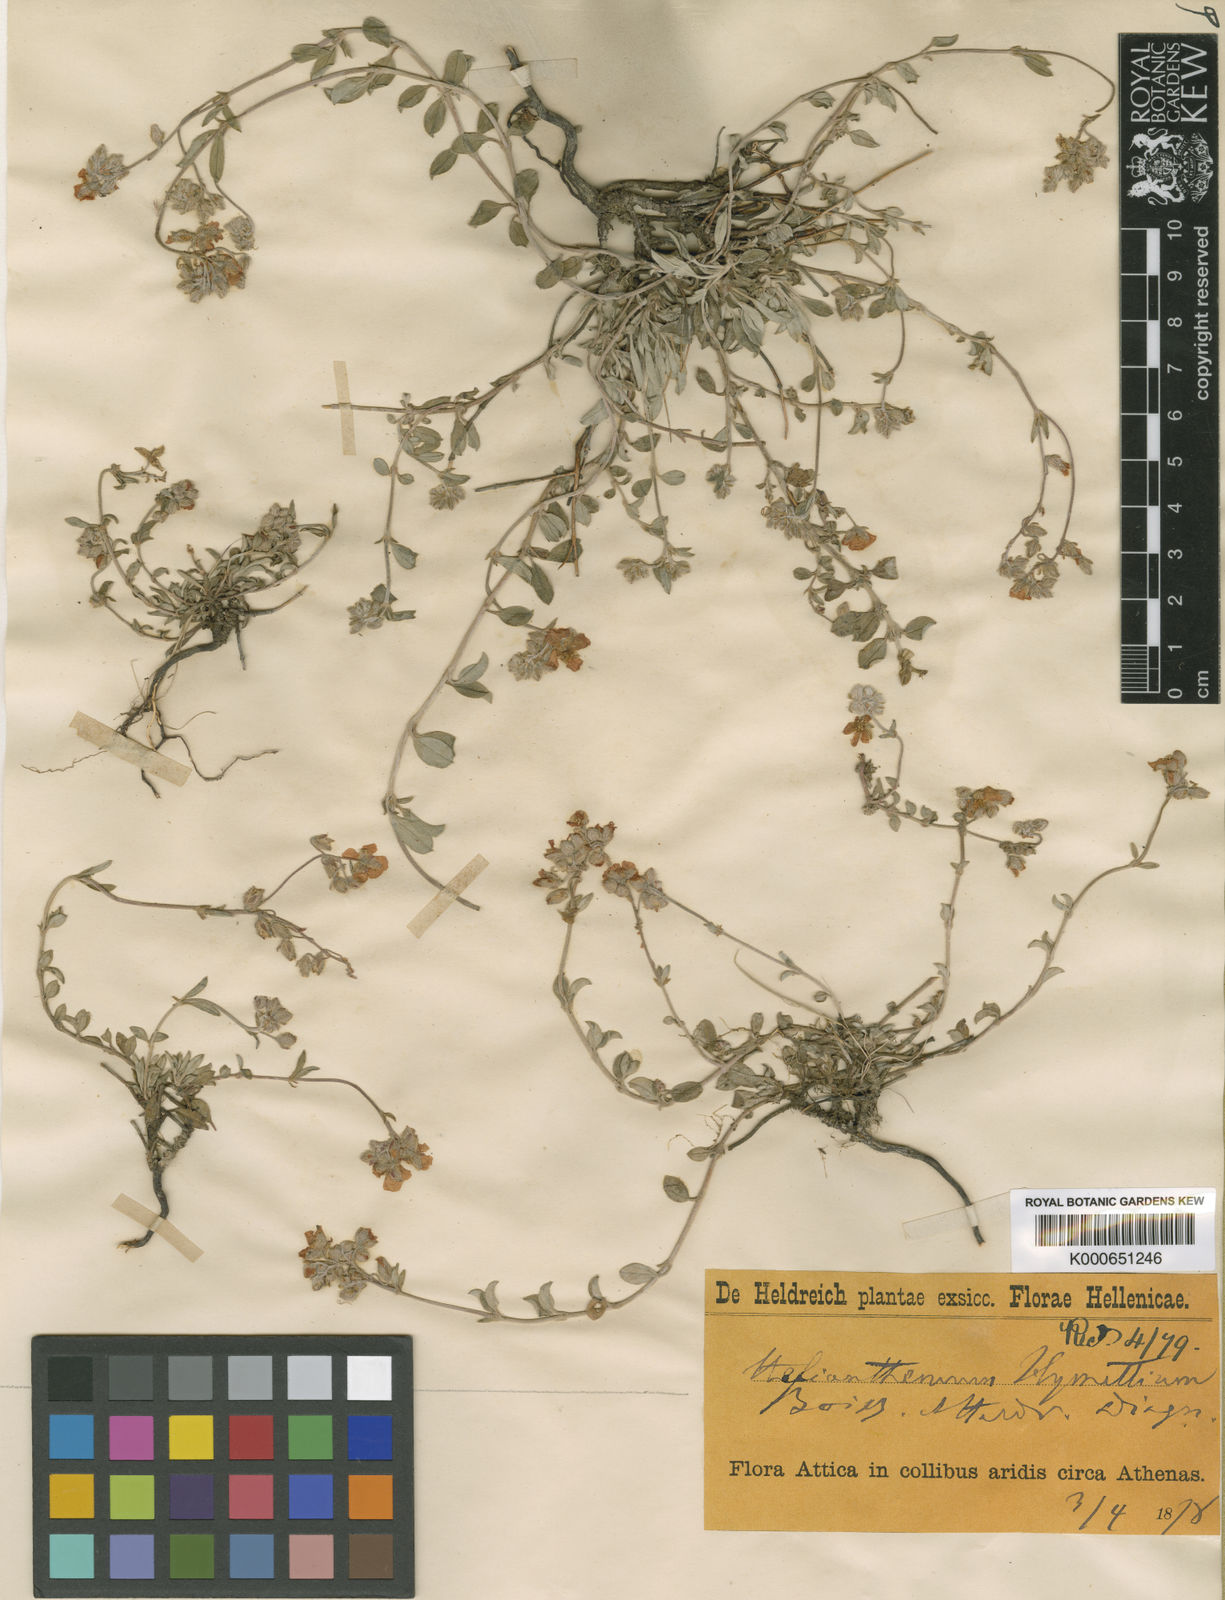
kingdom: Plantae
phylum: Tracheophyta
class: Magnoliopsida
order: Malvales
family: Cistaceae
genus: Helianthemum
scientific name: Helianthemum cinereum
